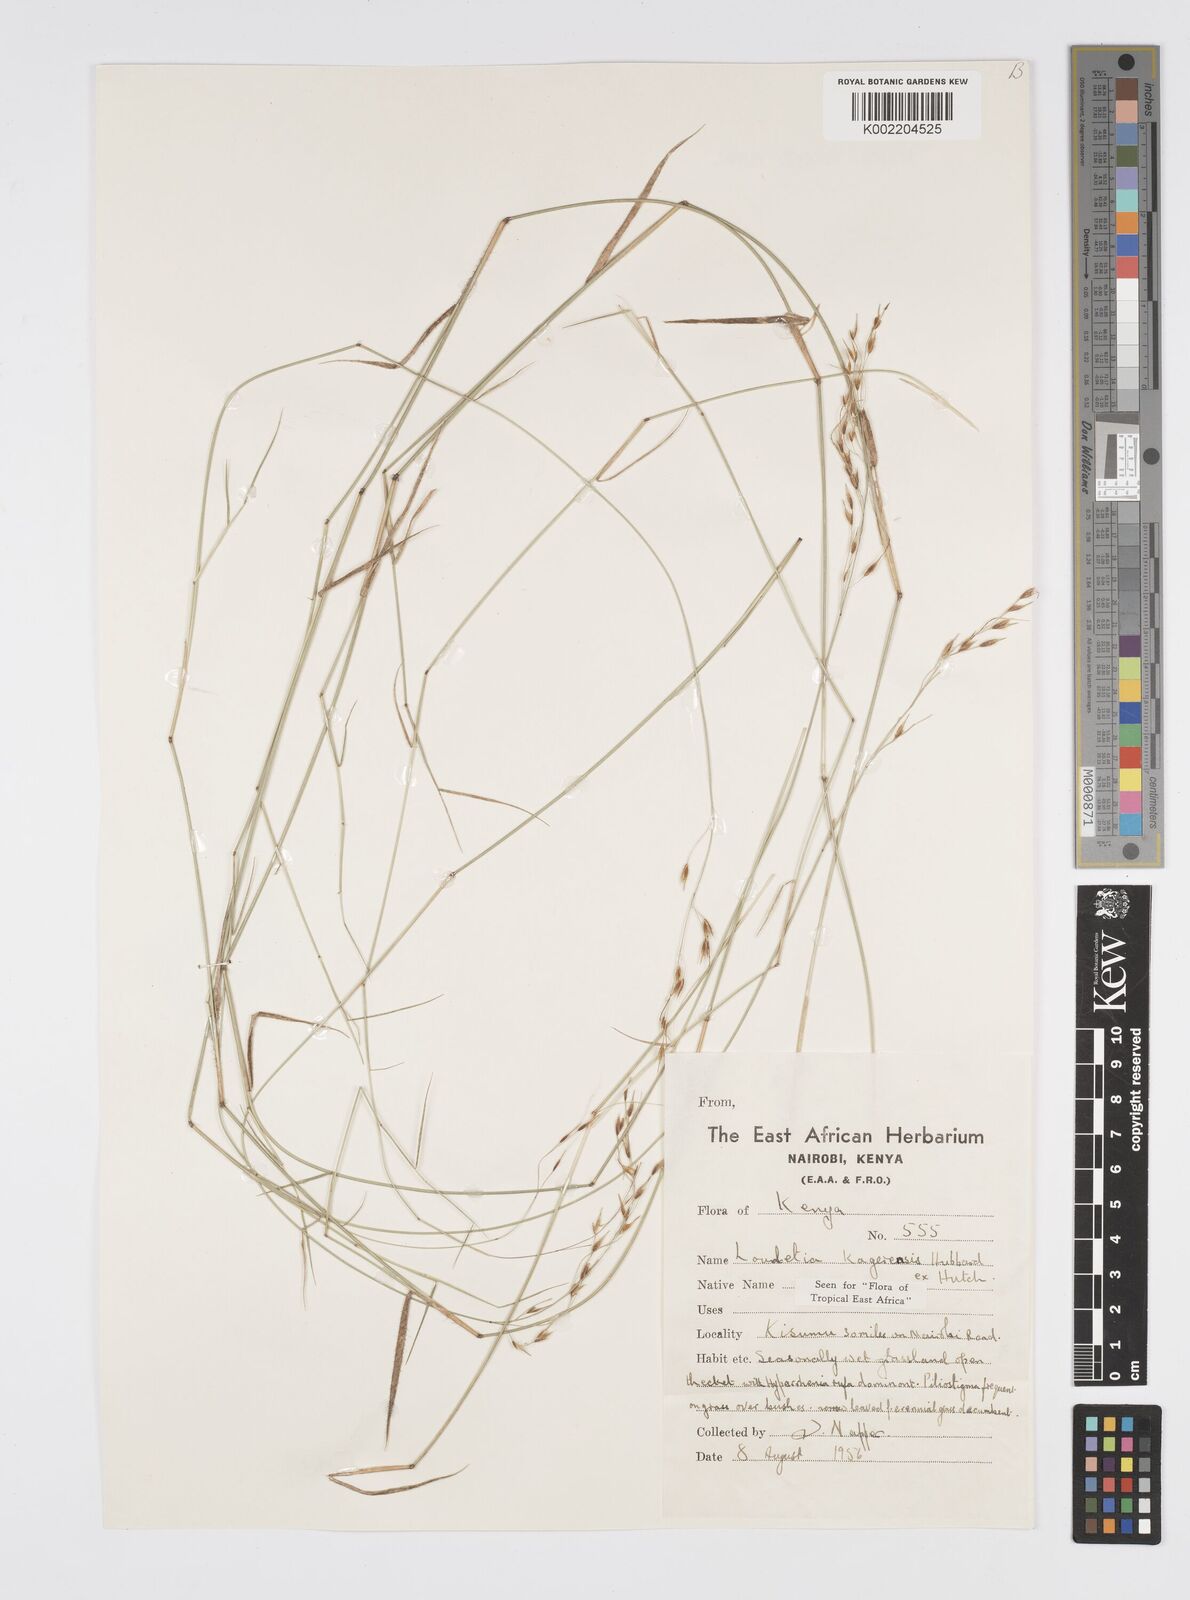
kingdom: Plantae
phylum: Tracheophyta
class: Liliopsida
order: Poales
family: Poaceae
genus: Loudetia
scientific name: Loudetia kagerensis
